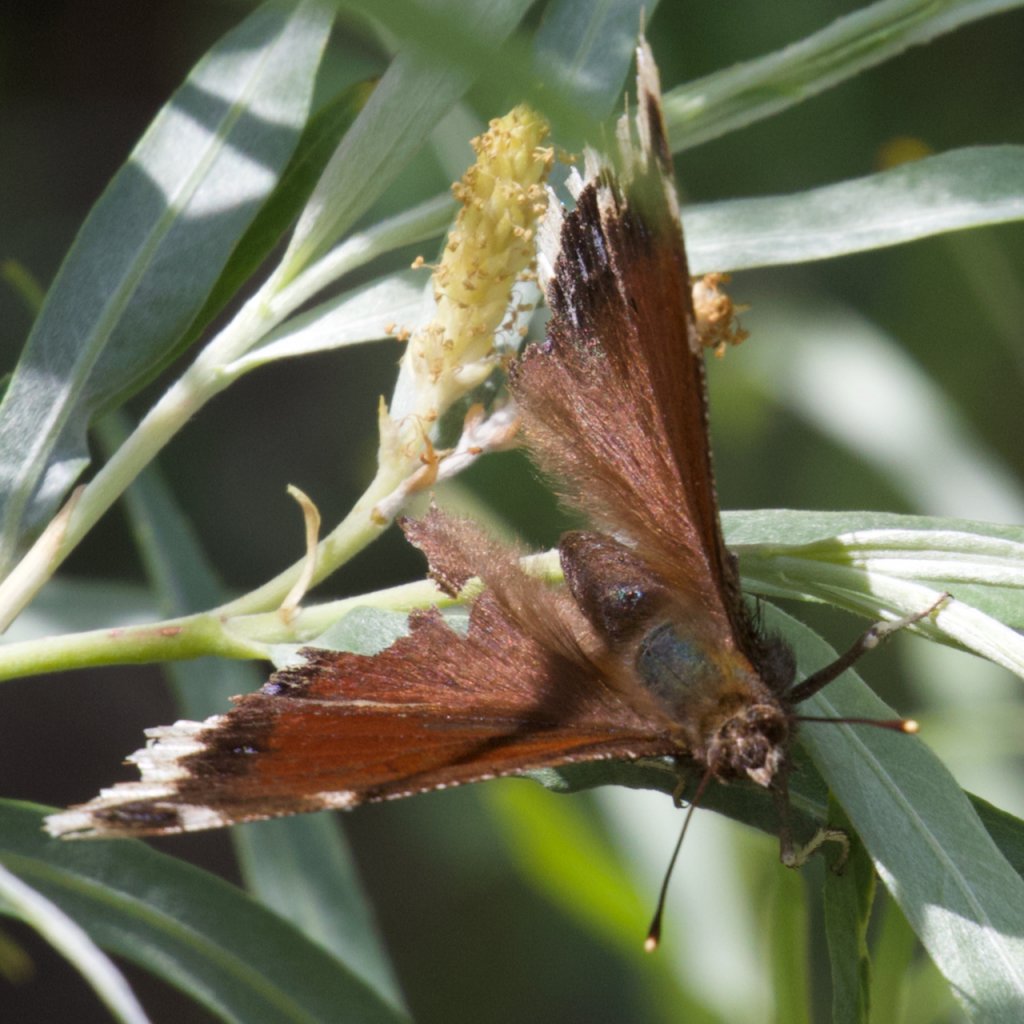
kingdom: Animalia
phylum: Arthropoda
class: Insecta
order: Lepidoptera
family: Nymphalidae
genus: Nymphalis
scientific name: Nymphalis antiopa
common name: Mourning Cloak
